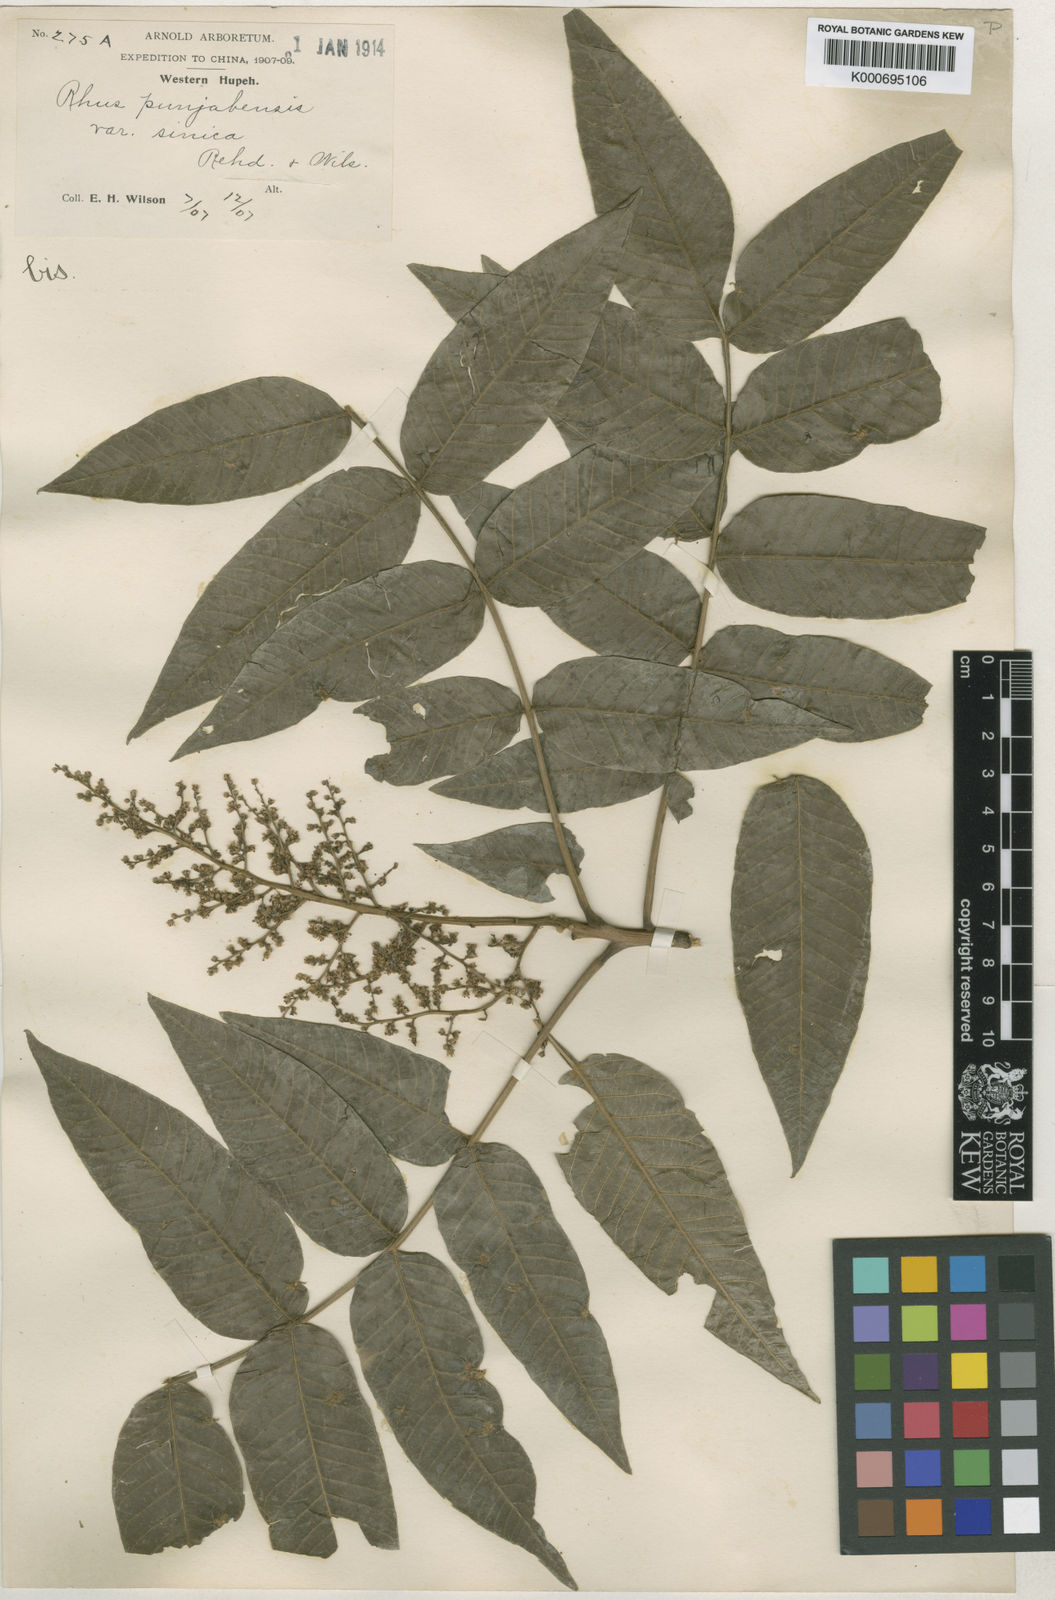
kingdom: Plantae
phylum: Tracheophyta
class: Magnoliopsida
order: Sapindales
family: Anacardiaceae
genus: Rhus
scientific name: Rhus punjabensis
